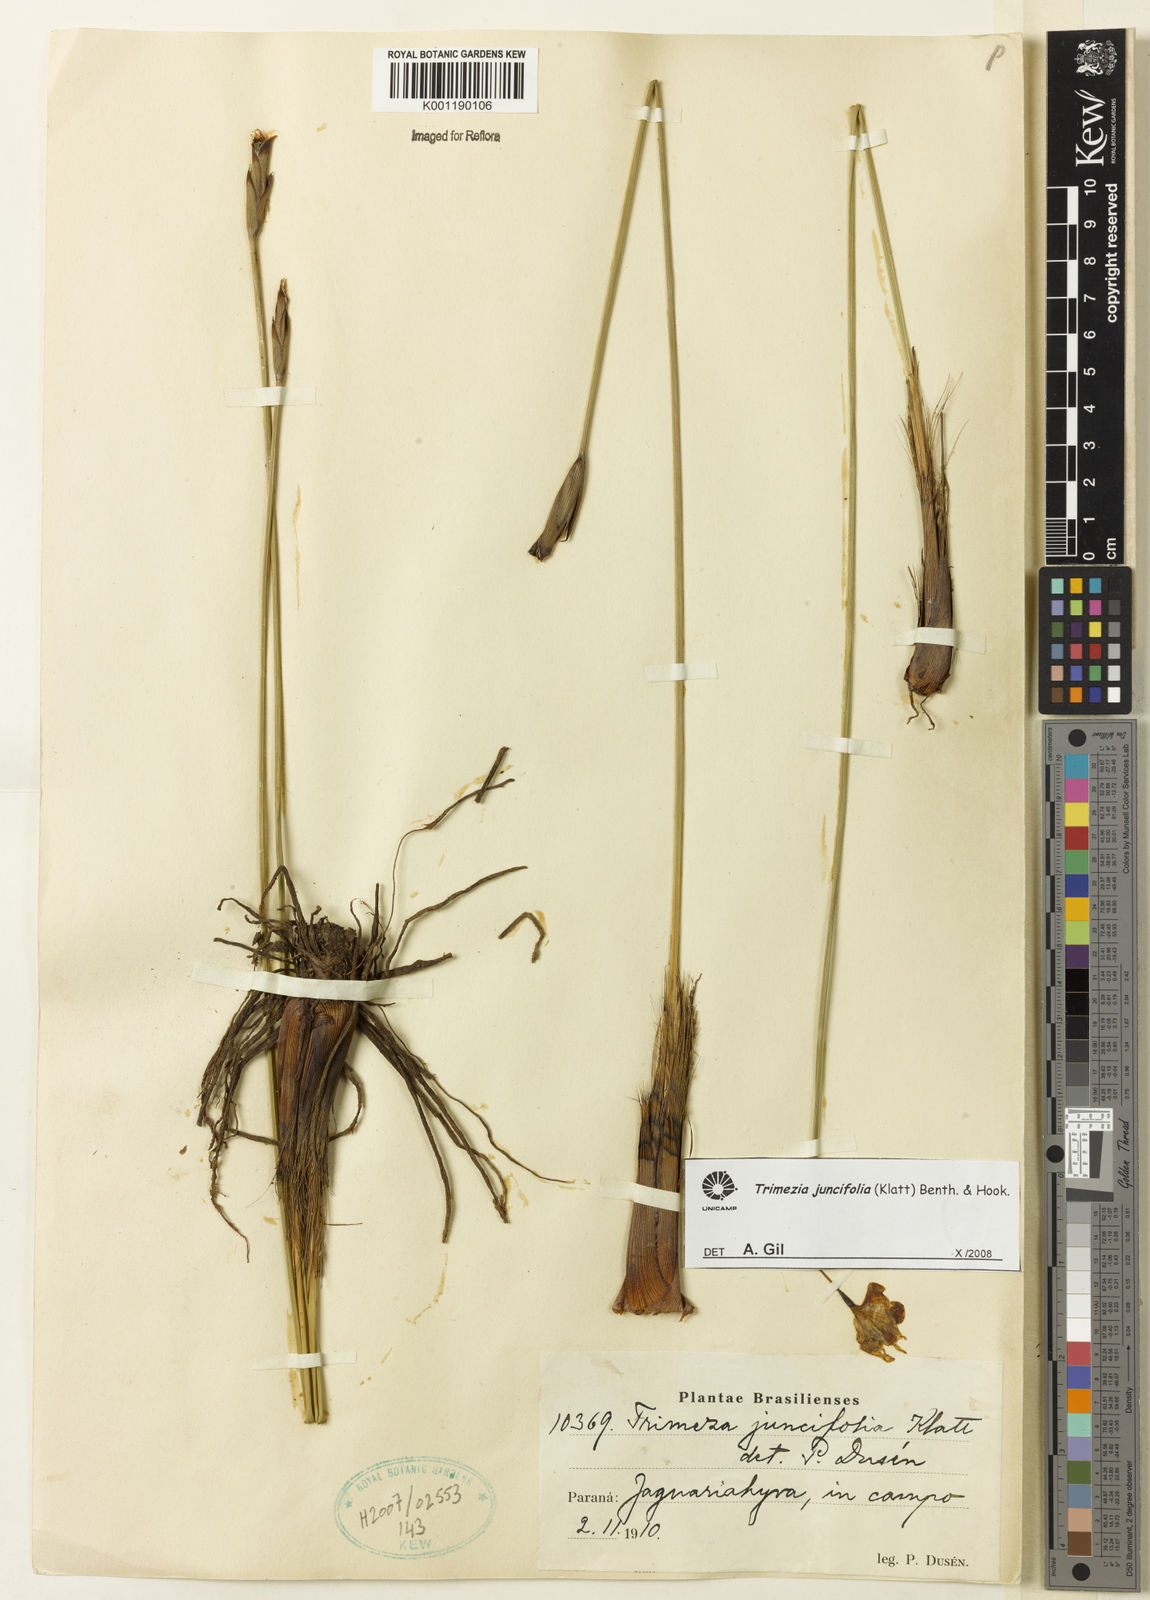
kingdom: Plantae
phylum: Tracheophyta
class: Liliopsida
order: Asparagales
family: Iridaceae
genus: Trimezia
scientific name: Trimezia juncifolia
